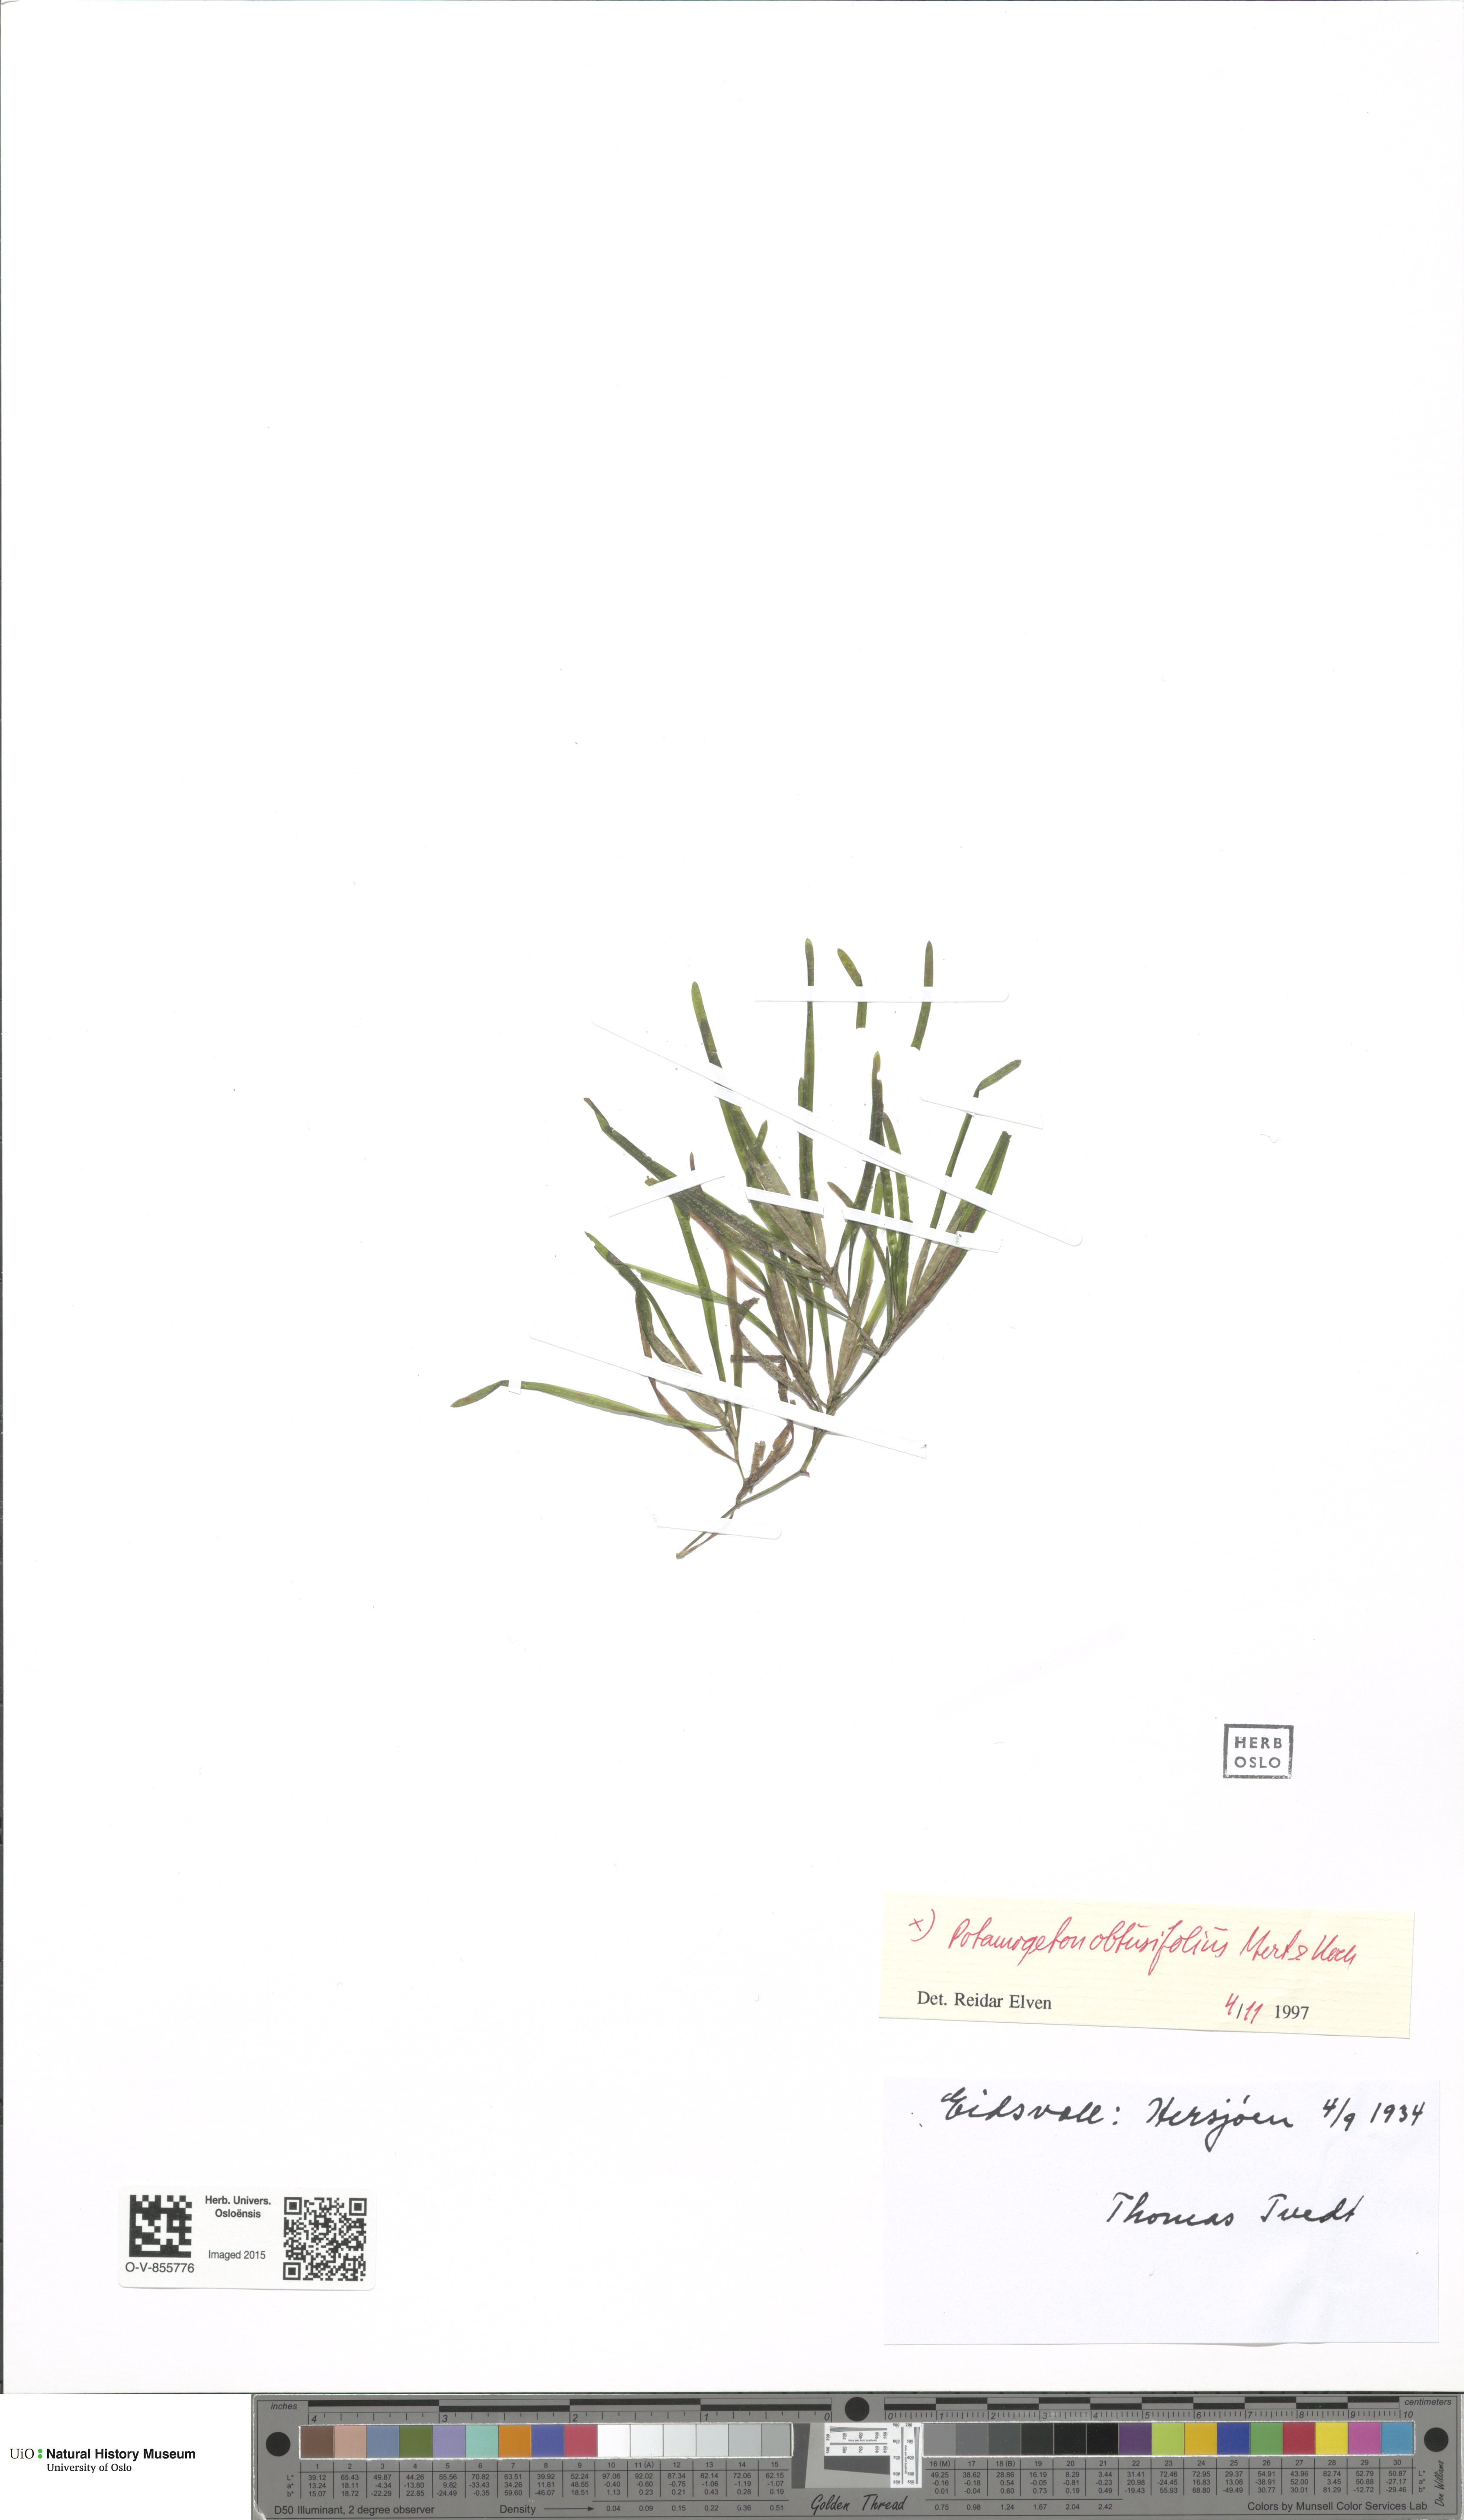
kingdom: Plantae
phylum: Tracheophyta
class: Liliopsida
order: Alismatales
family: Potamogetonaceae
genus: Potamogeton
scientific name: Potamogeton obtusifolius
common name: Blunt-leaved pondweed
